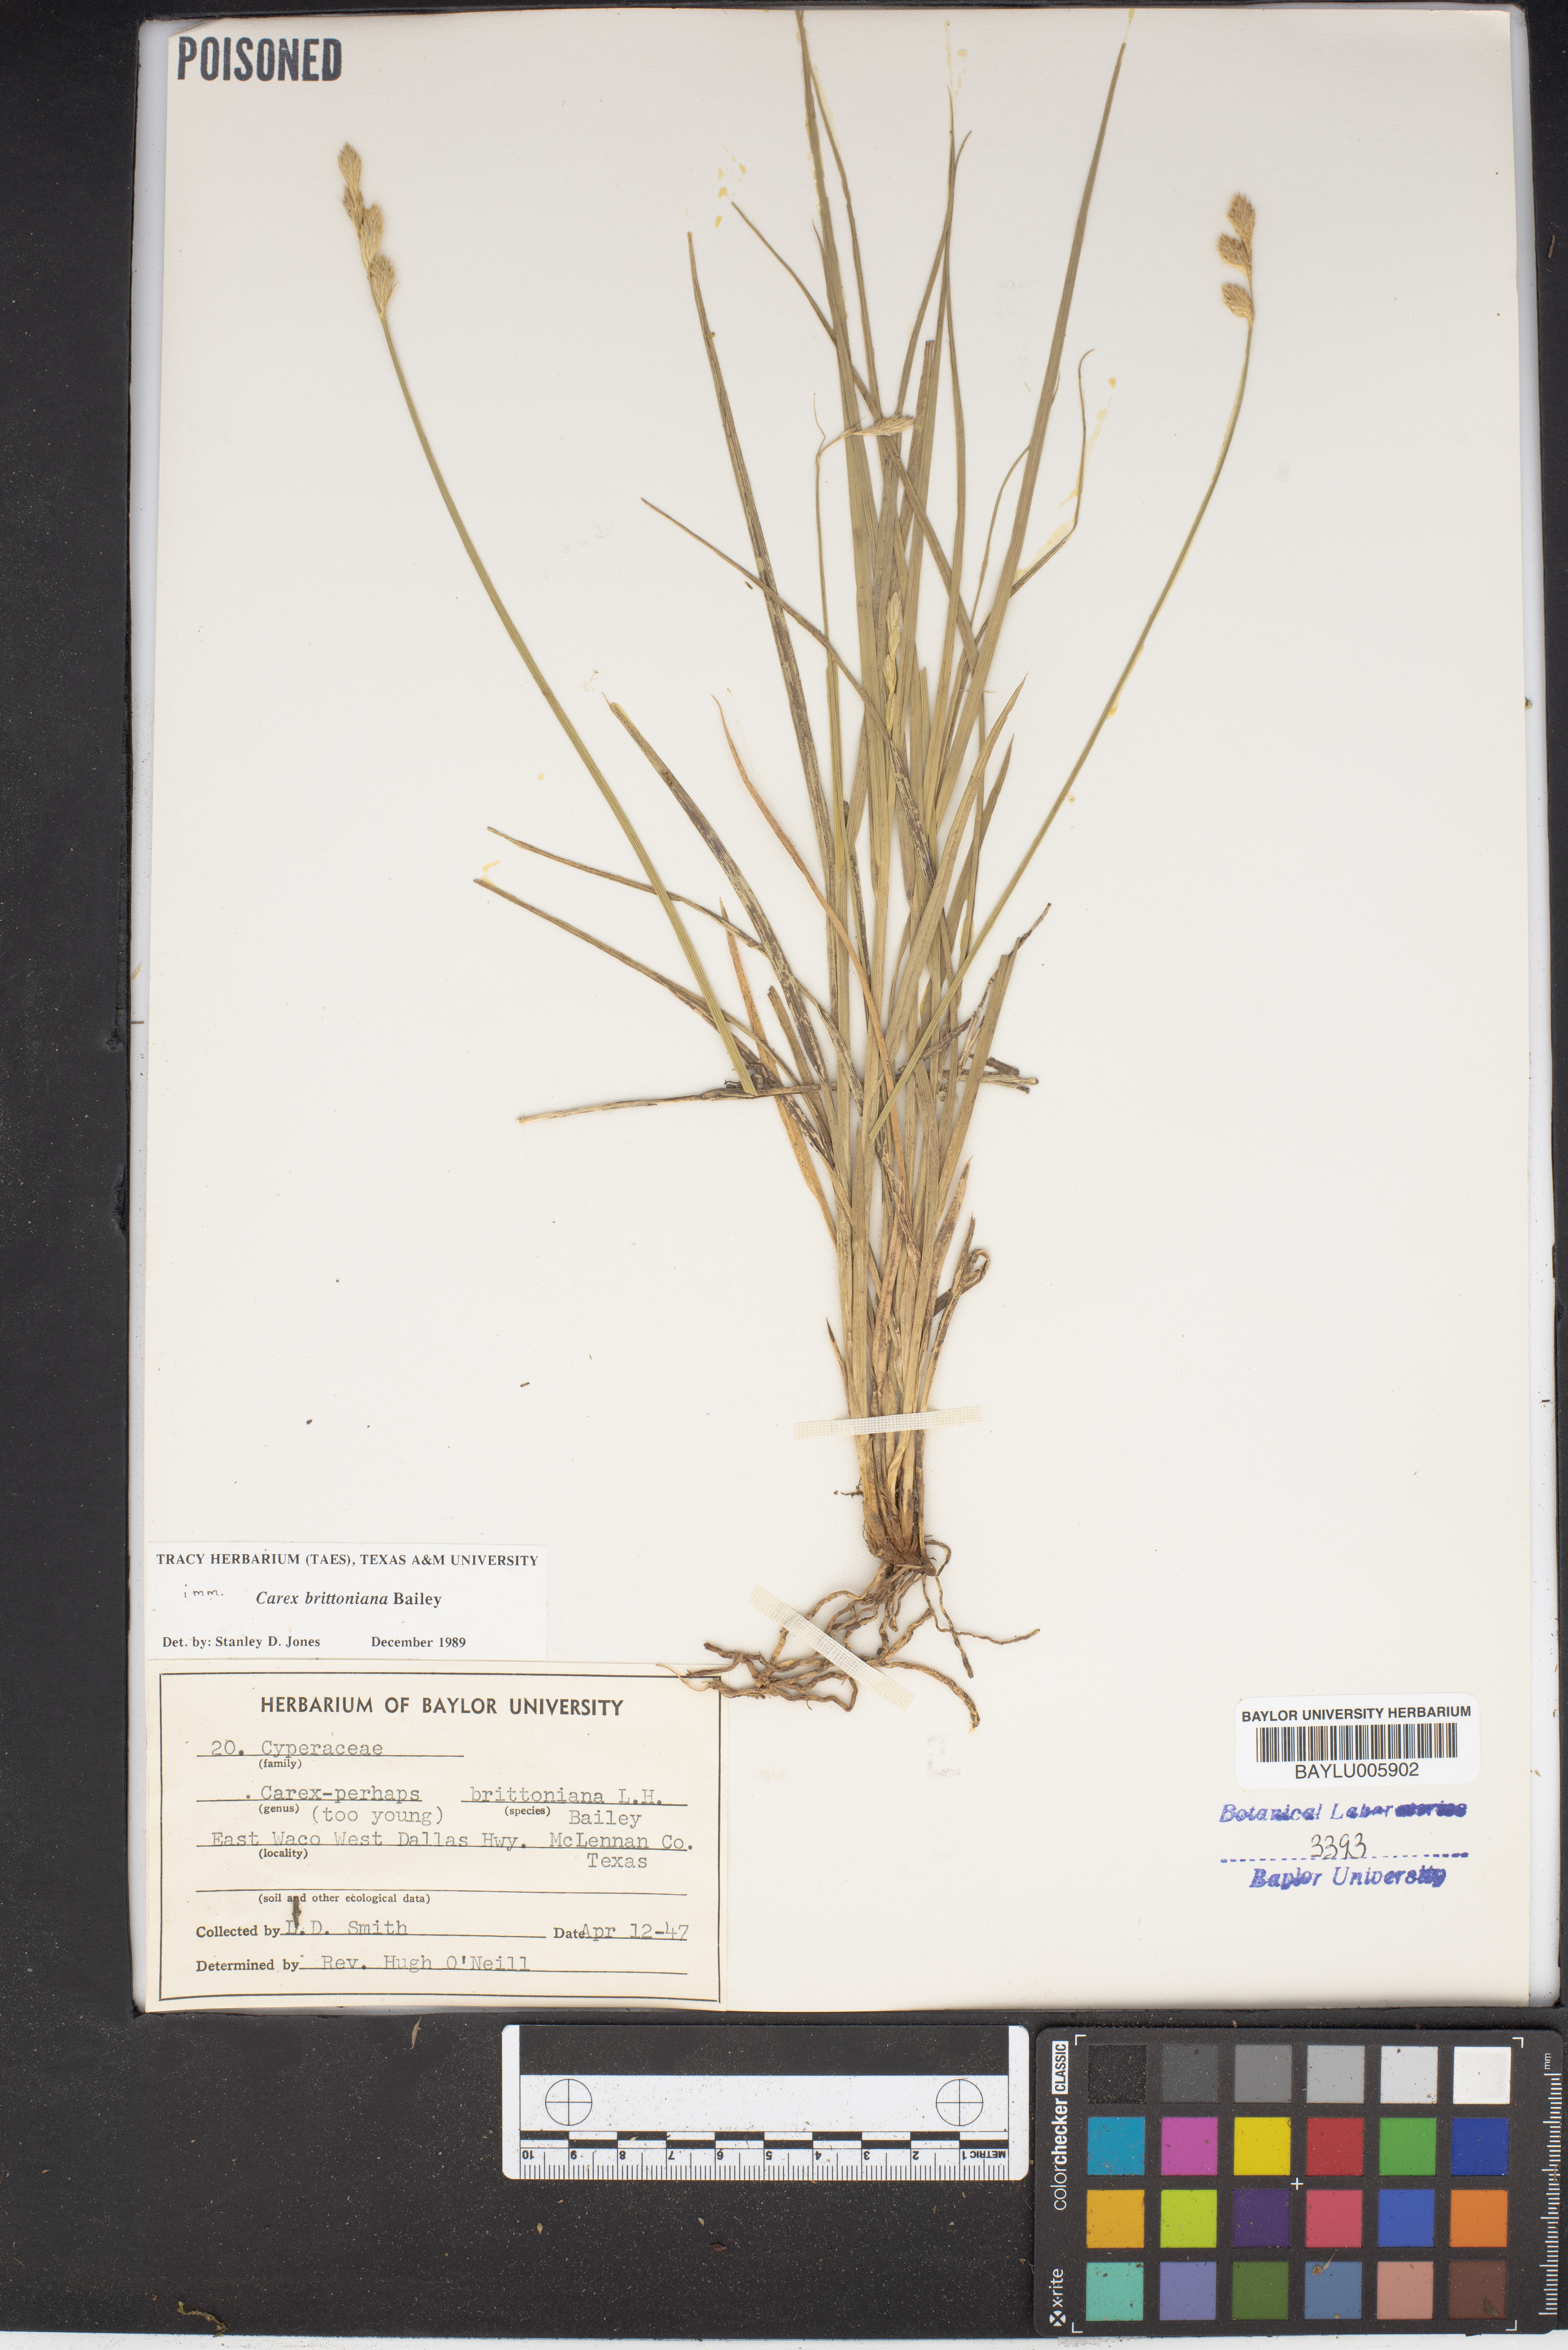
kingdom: Plantae
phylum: Tracheophyta
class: Liliopsida
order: Poales
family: Cyperaceae
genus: Carex
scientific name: Carex tetrastachya
